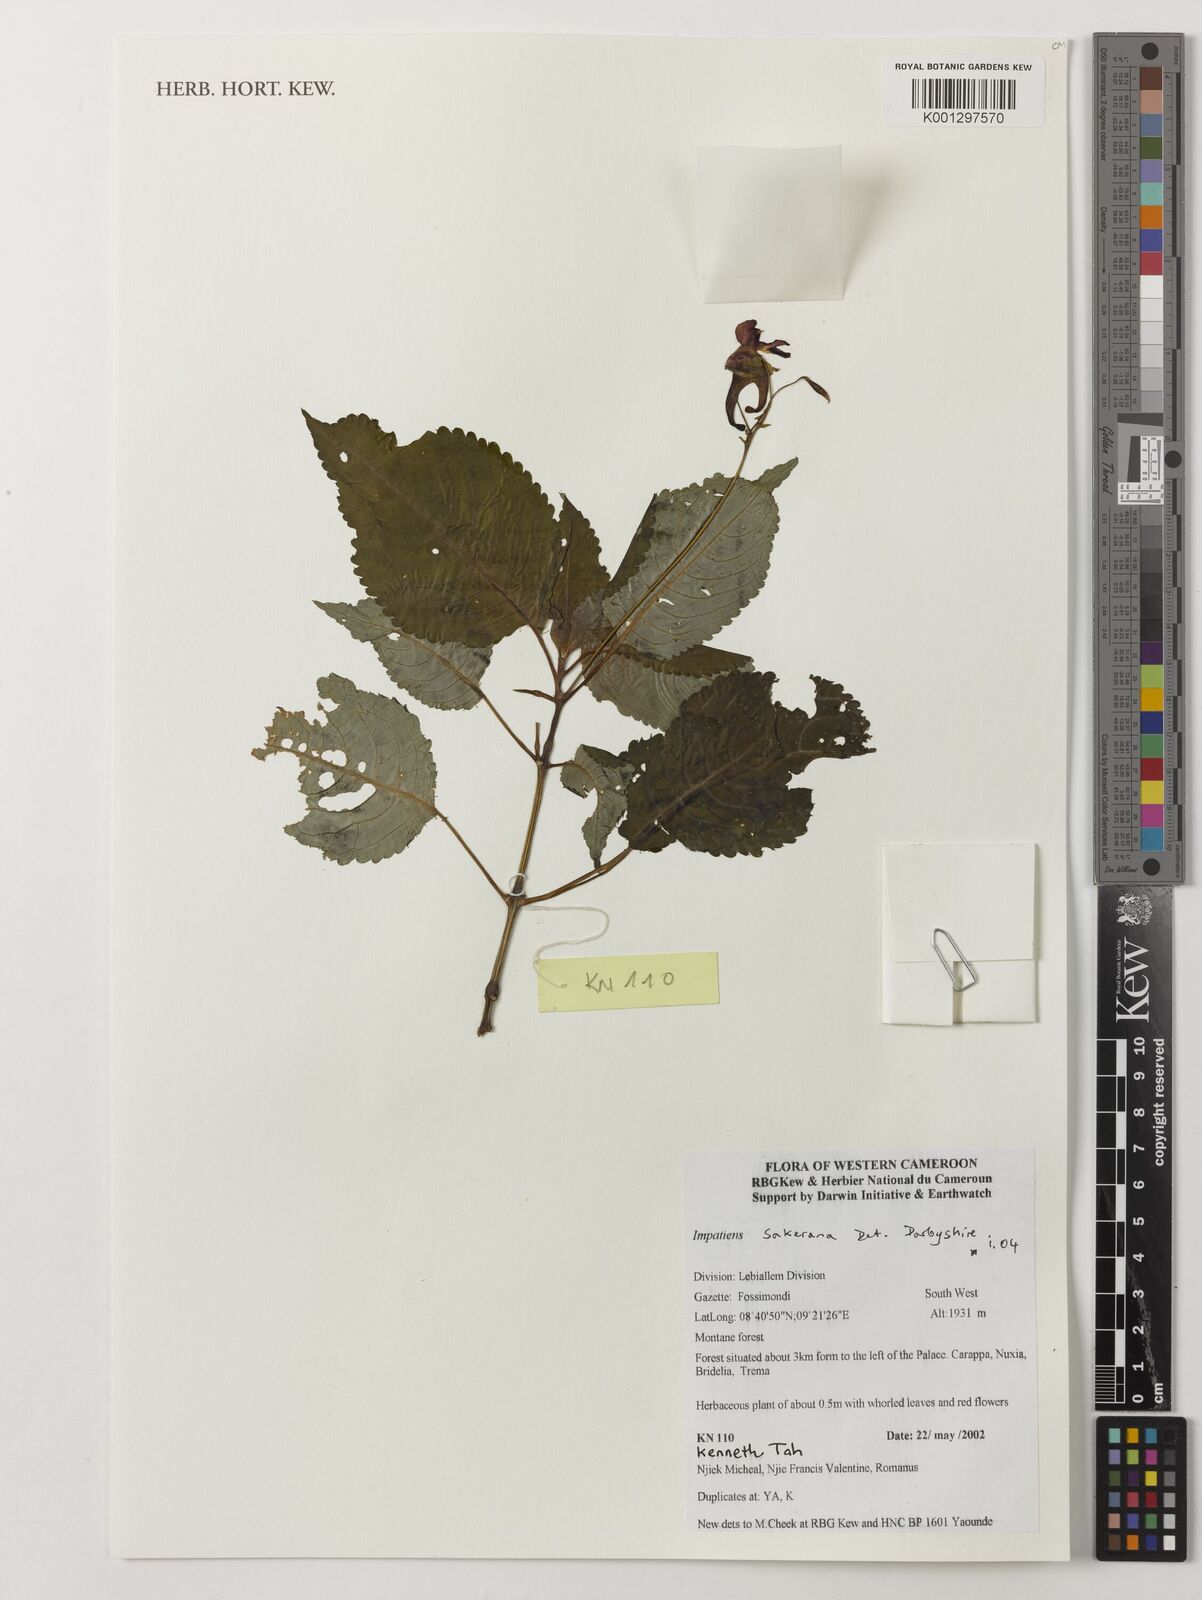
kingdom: Plantae
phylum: Tracheophyta
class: Magnoliopsida
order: Ericales
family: Balsaminaceae
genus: Impatiens
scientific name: Impatiens sakeriana
